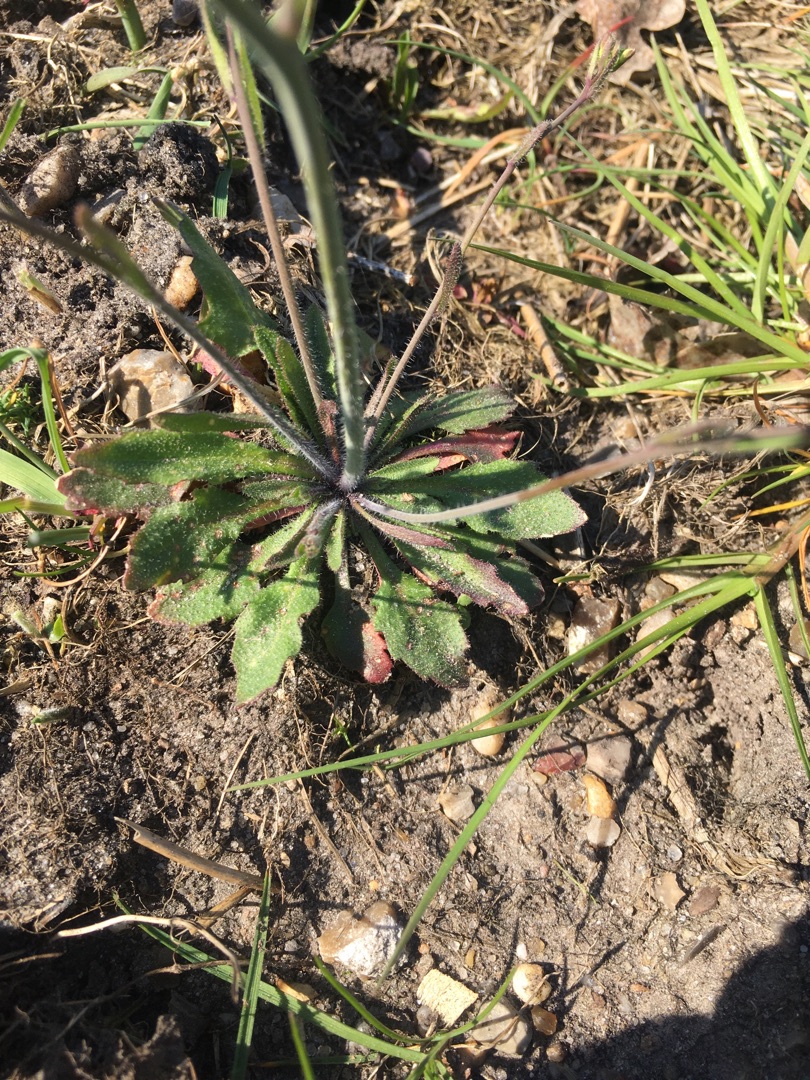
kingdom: Plantae
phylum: Tracheophyta
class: Magnoliopsida
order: Brassicales
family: Brassicaceae
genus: Arabidopsis
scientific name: Arabidopsis thaliana
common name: Almindelig gåsemad
